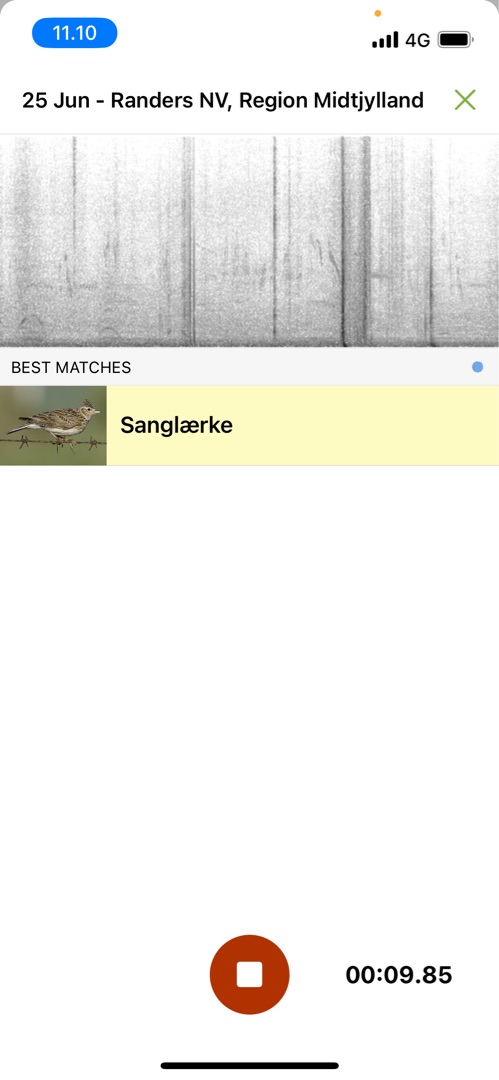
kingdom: Animalia
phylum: Chordata
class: Aves
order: Passeriformes
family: Alaudidae
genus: Alauda
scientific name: Alauda arvensis
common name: Sanglærke
